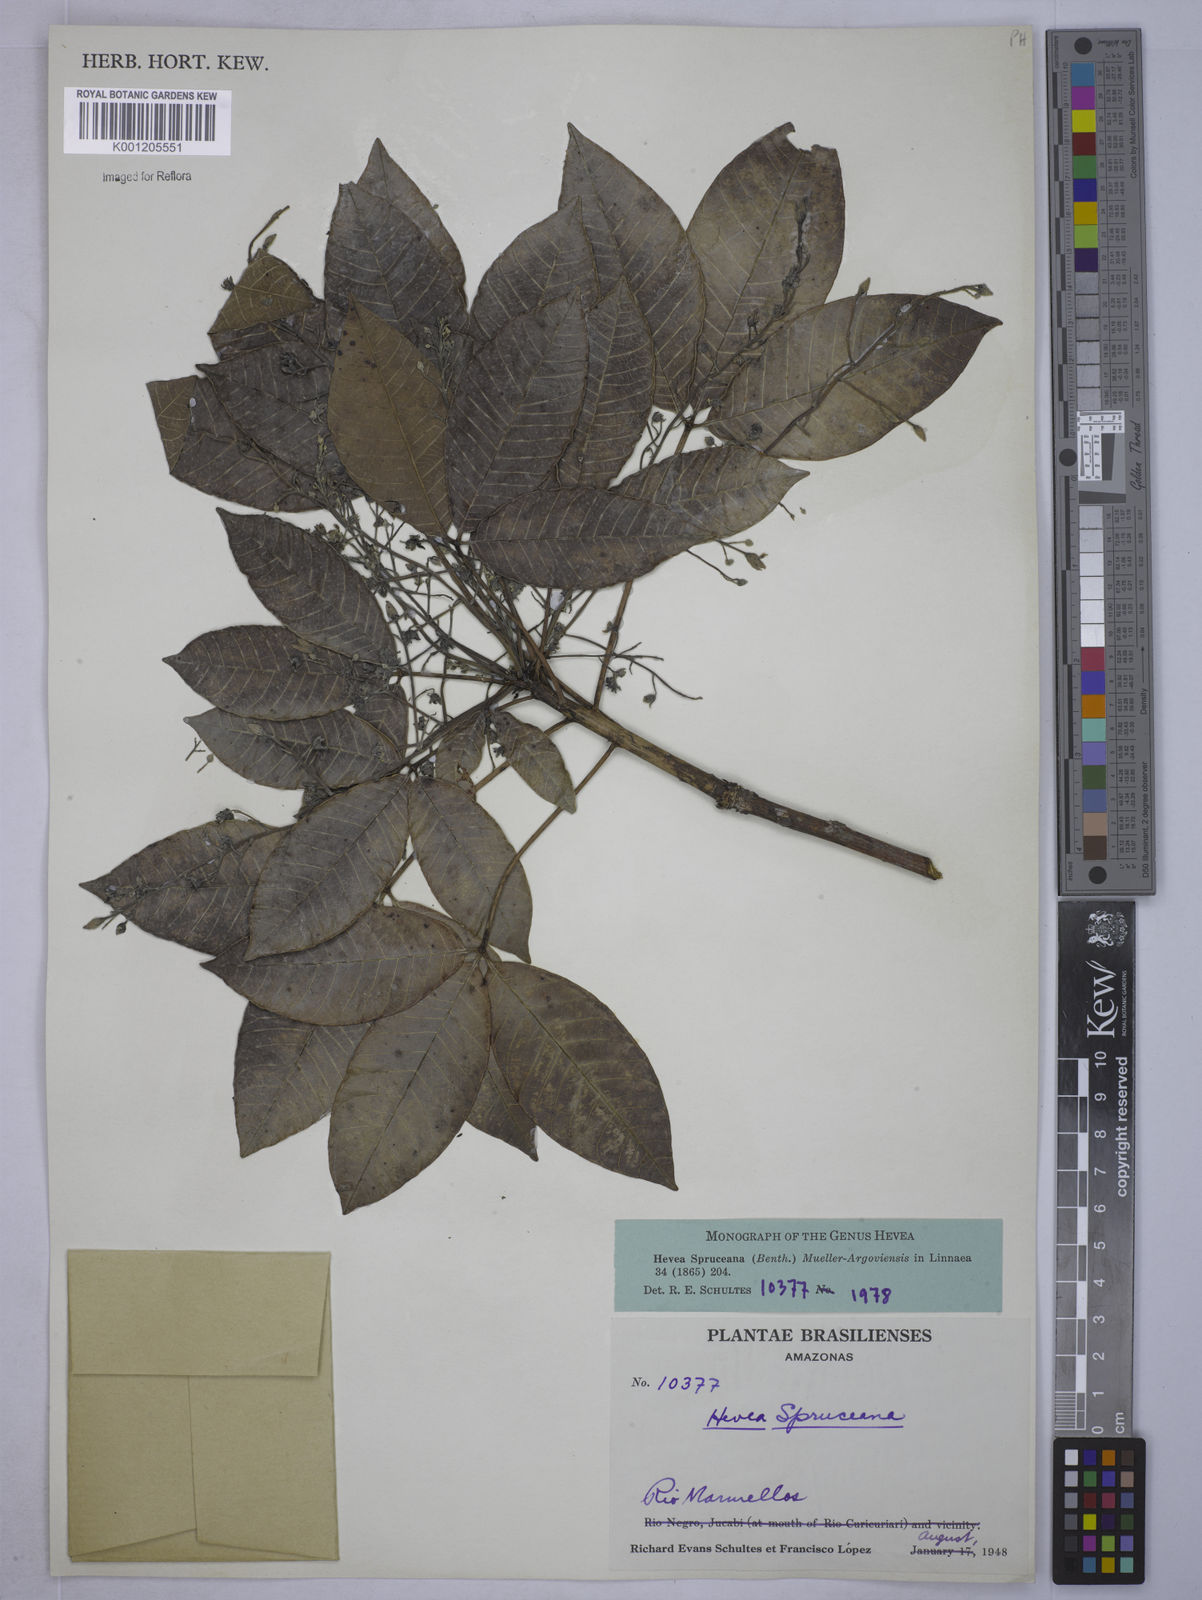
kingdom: Plantae
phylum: Tracheophyta
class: Magnoliopsida
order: Malpighiales
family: Euphorbiaceae
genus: Hevea
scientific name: Hevea
